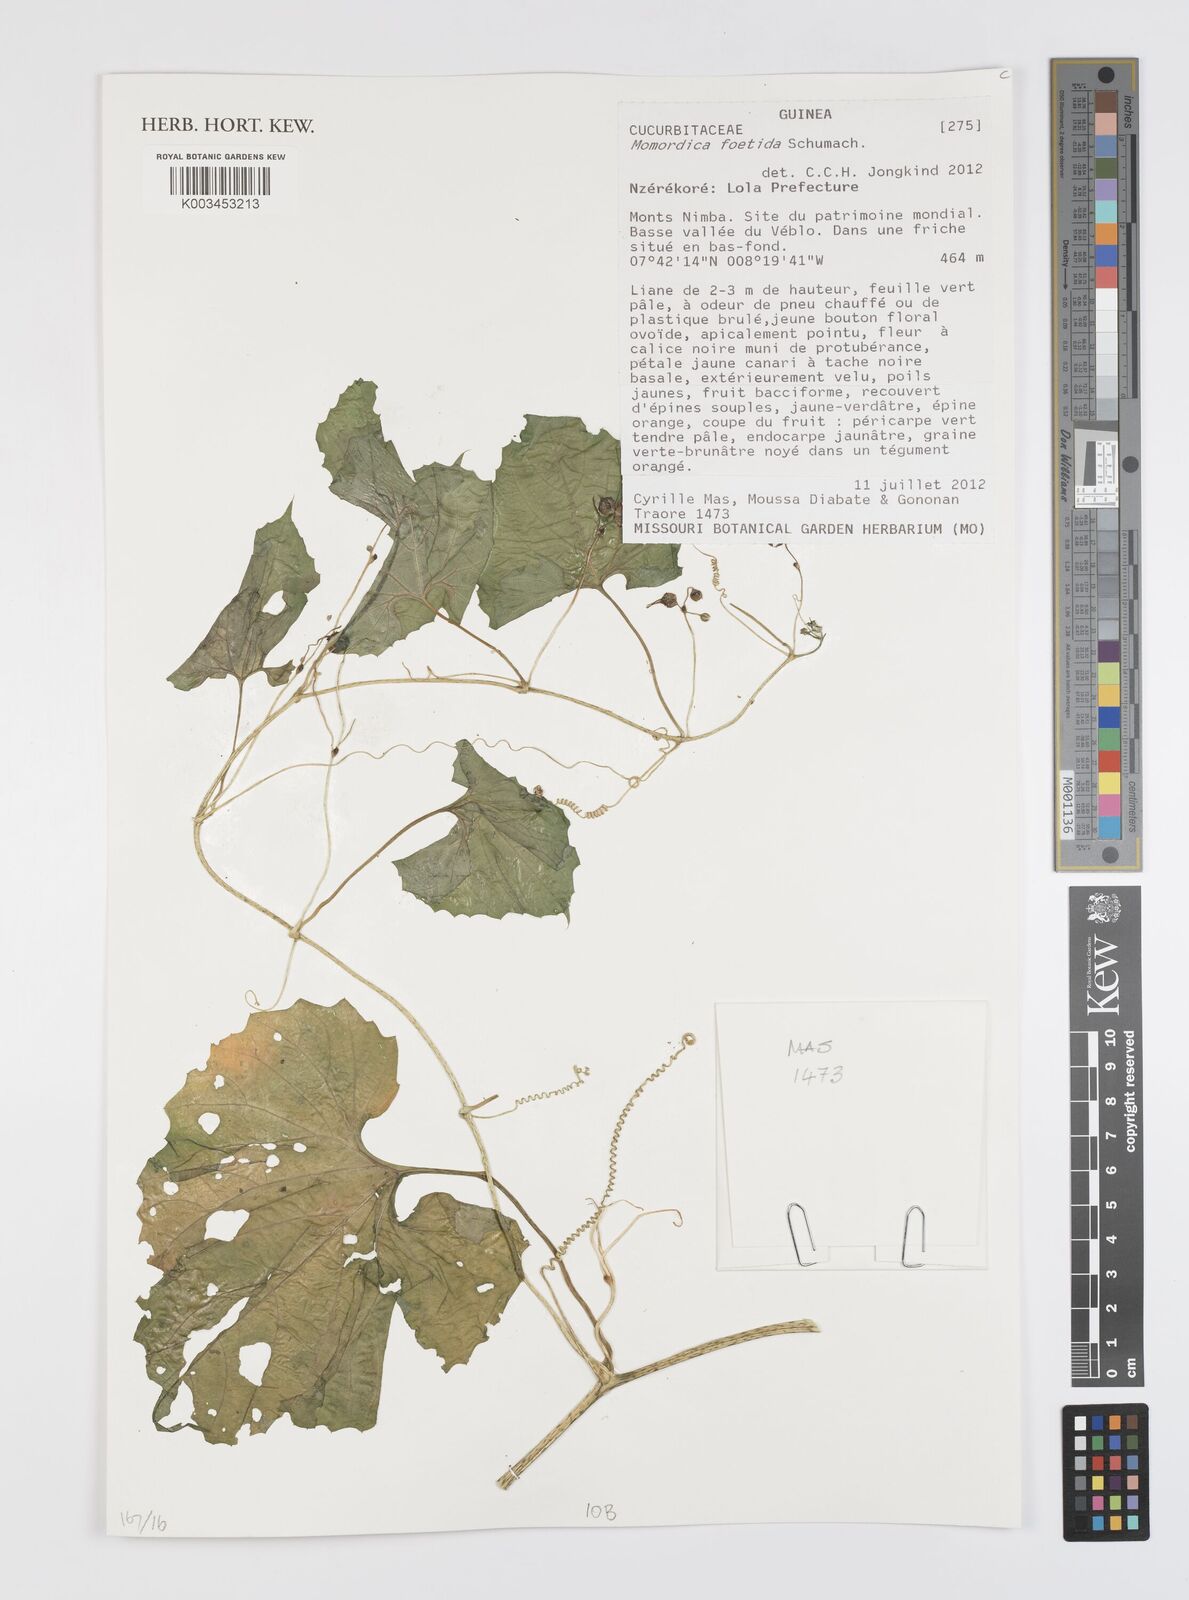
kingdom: Plantae
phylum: Tracheophyta
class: Magnoliopsida
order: Cucurbitales
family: Cucurbitaceae
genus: Momordica
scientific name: Momordica foetida
